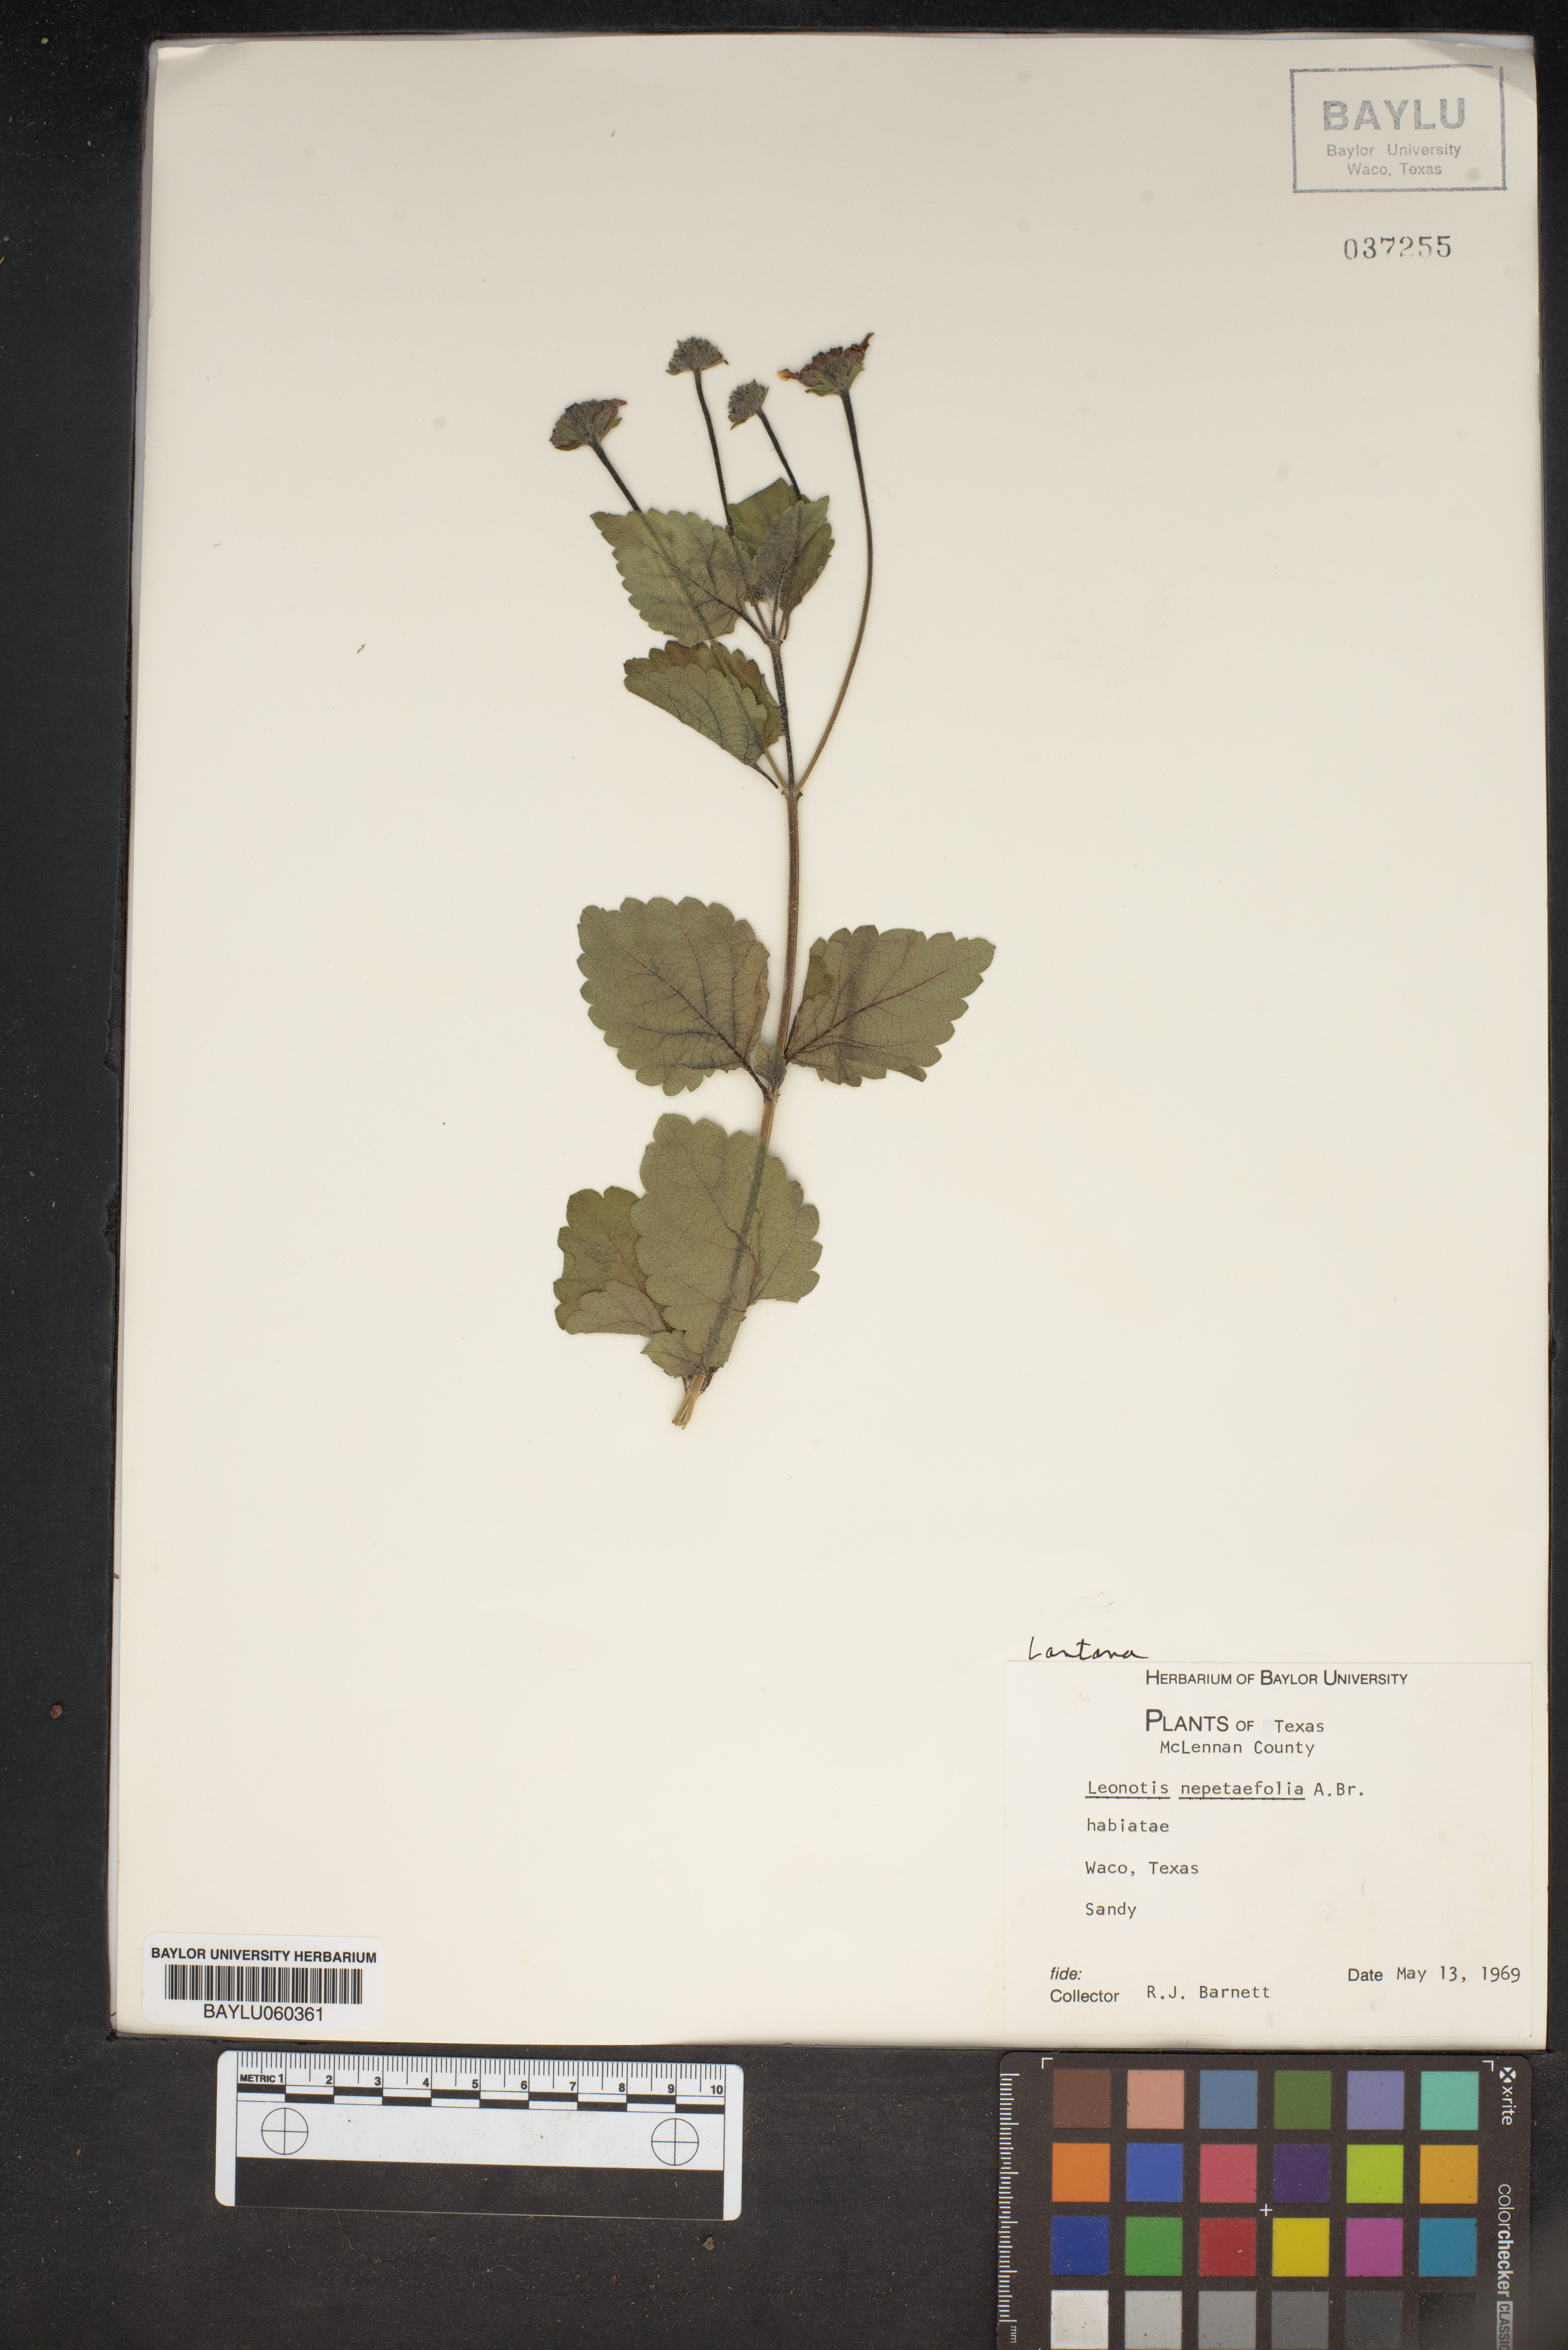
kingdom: Plantae
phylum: Tracheophyta
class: Magnoliopsida
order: Lamiales
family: Lamiaceae
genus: Leonotis
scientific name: Leonotis nepetifolia
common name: Christmas candlestick
